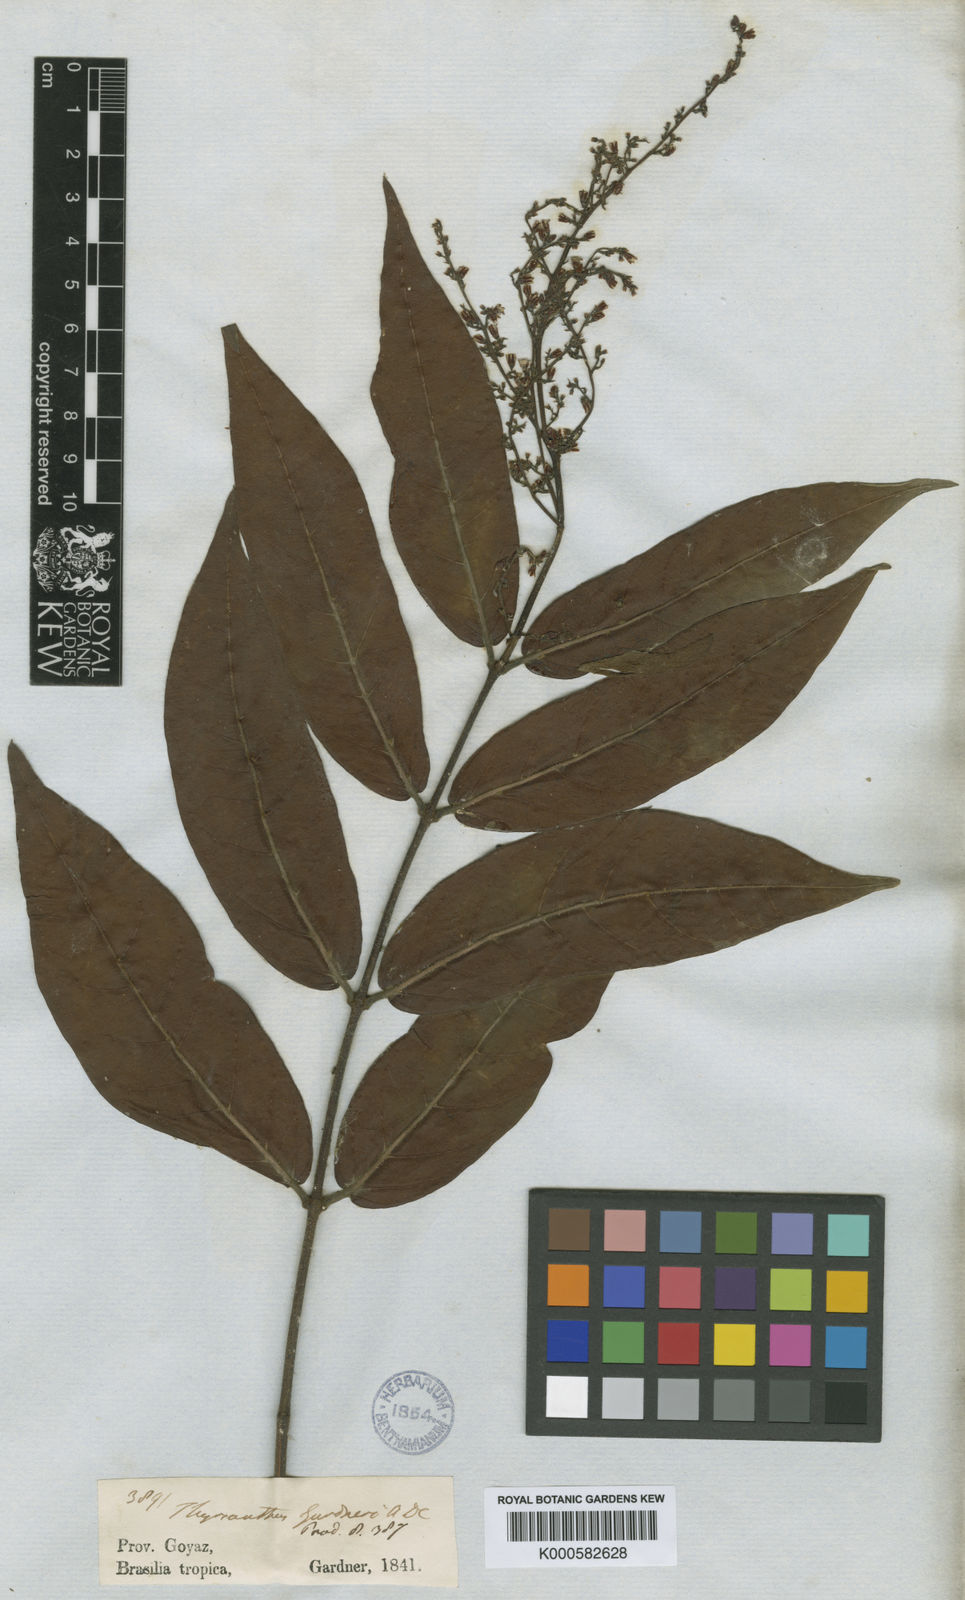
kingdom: Plantae
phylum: Tracheophyta
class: Magnoliopsida
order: Gentianales
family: Apocynaceae
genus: Forsteronia
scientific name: Forsteronia
